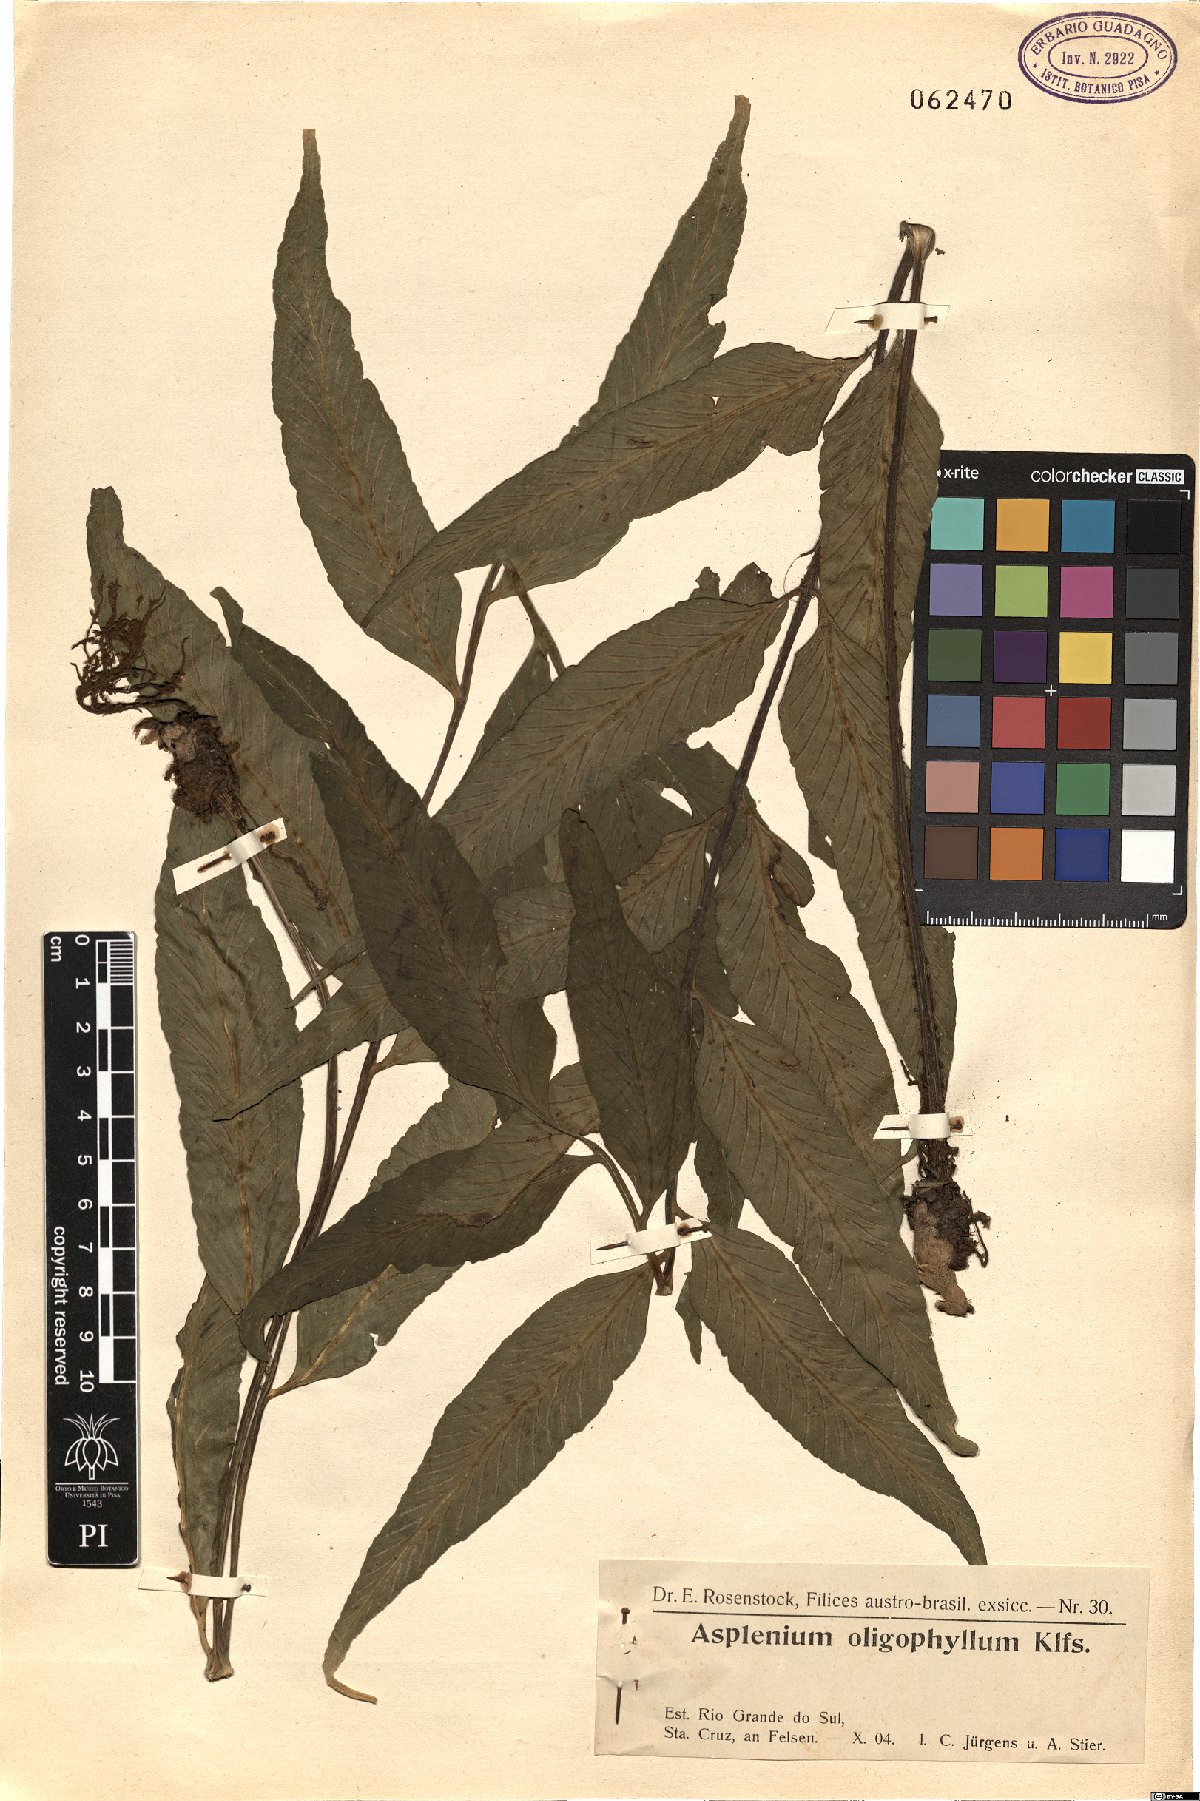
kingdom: Plantae
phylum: Tracheophyta
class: Polypodiopsida
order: Polypodiales
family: Aspleniaceae
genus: Asplenium
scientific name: Asplenium oligophyllum
